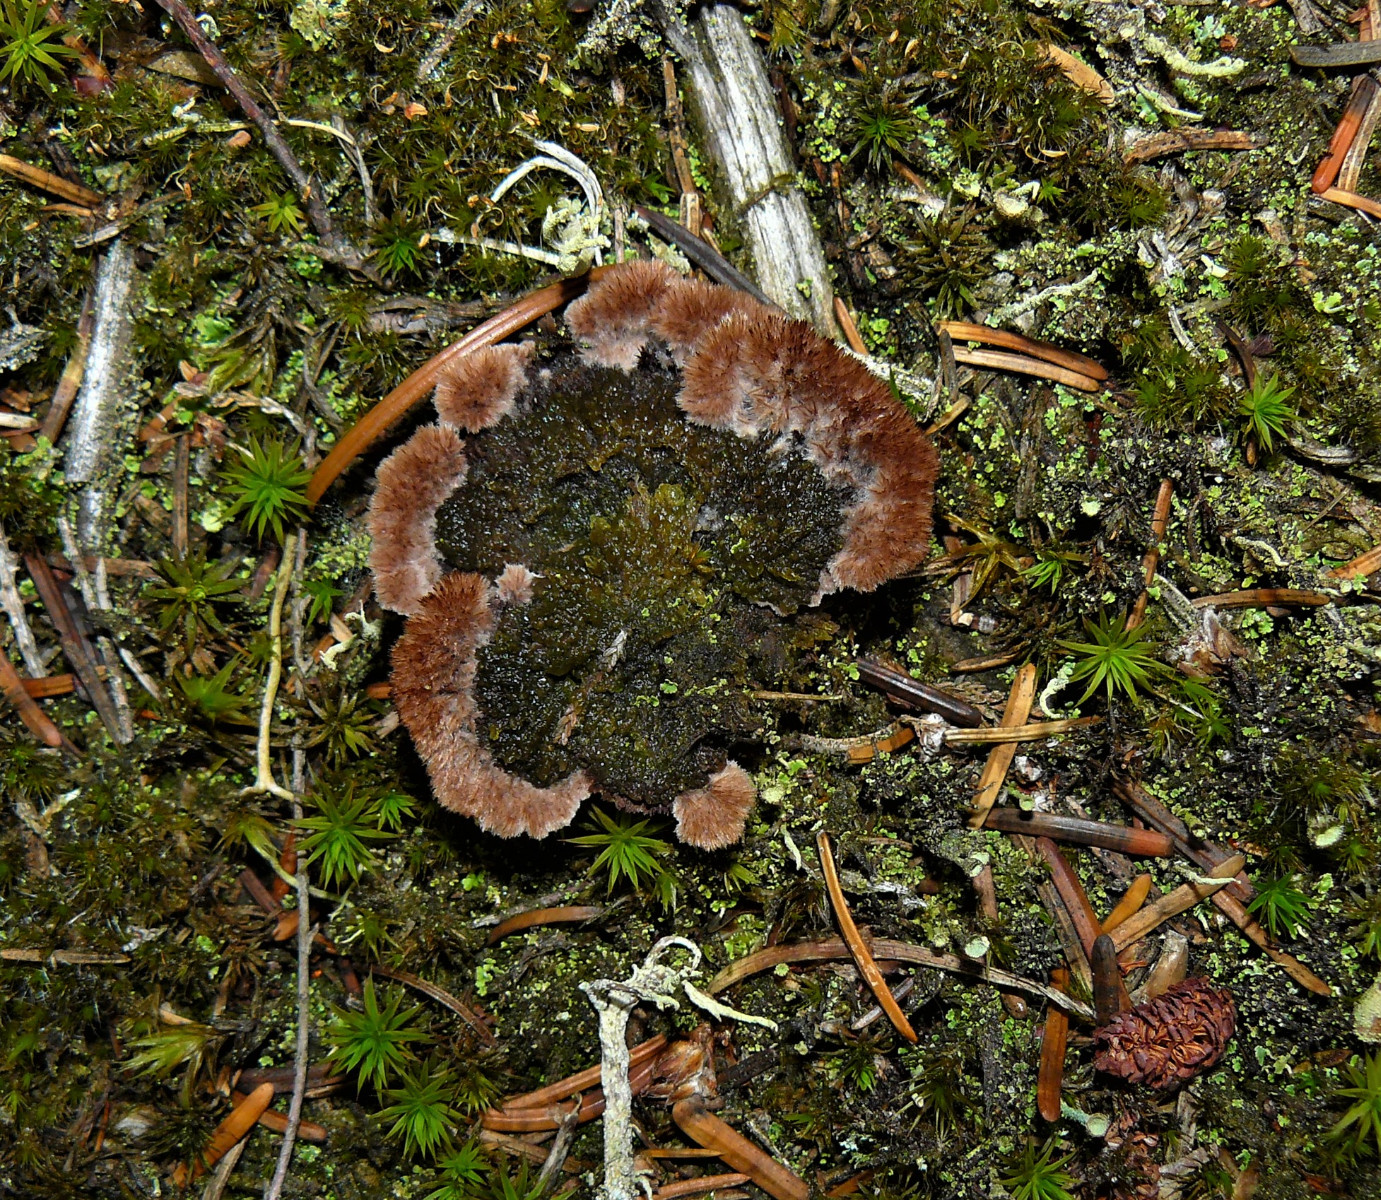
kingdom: Fungi
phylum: Basidiomycota
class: Agaricomycetes
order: Thelephorales
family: Thelephoraceae
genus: Thelephora
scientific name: Thelephora terrestris
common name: fliget frynsesvamp
